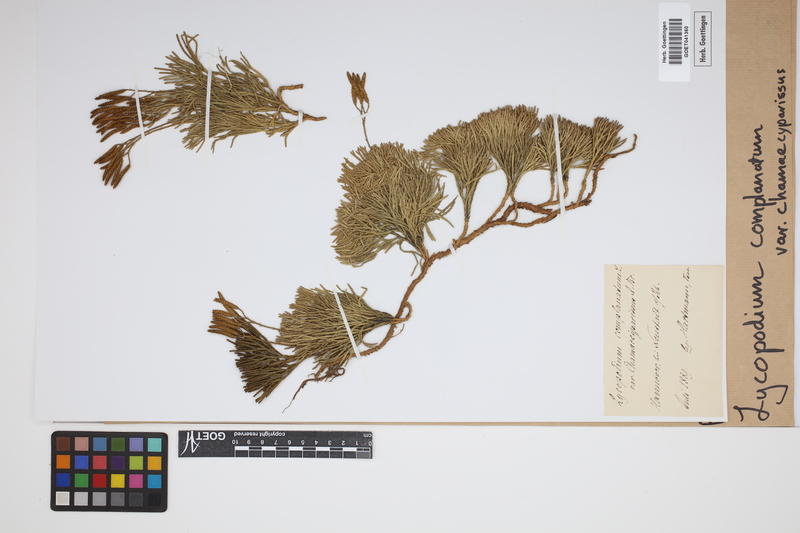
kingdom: Plantae
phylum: Tracheophyta
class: Lycopodiopsida
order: Lycopodiales
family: Lycopodiaceae
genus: Diphasiastrum
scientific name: Diphasiastrum tristachyum
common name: Blue ground-cedar
